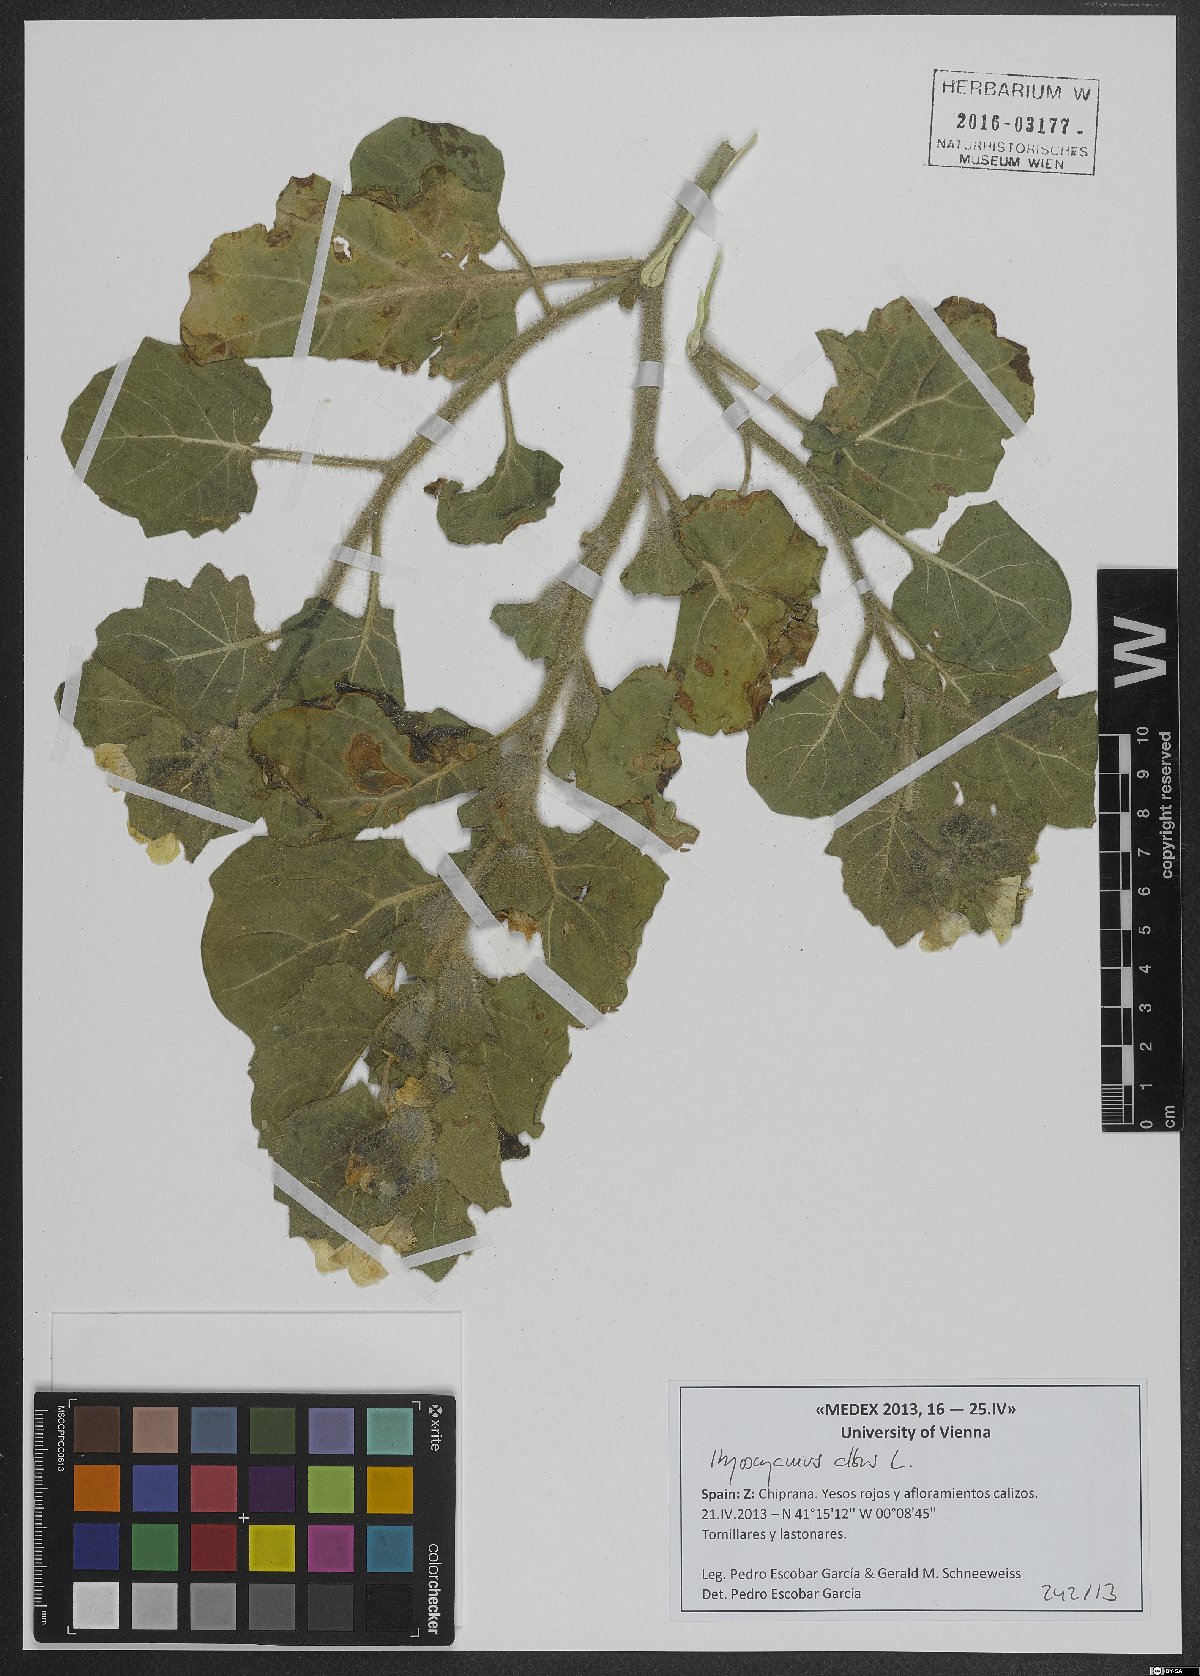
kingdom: Plantae
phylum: Tracheophyta
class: Magnoliopsida
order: Solanales
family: Solanaceae
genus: Hyoscyamus
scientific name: Hyoscyamus albus
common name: White henbane
